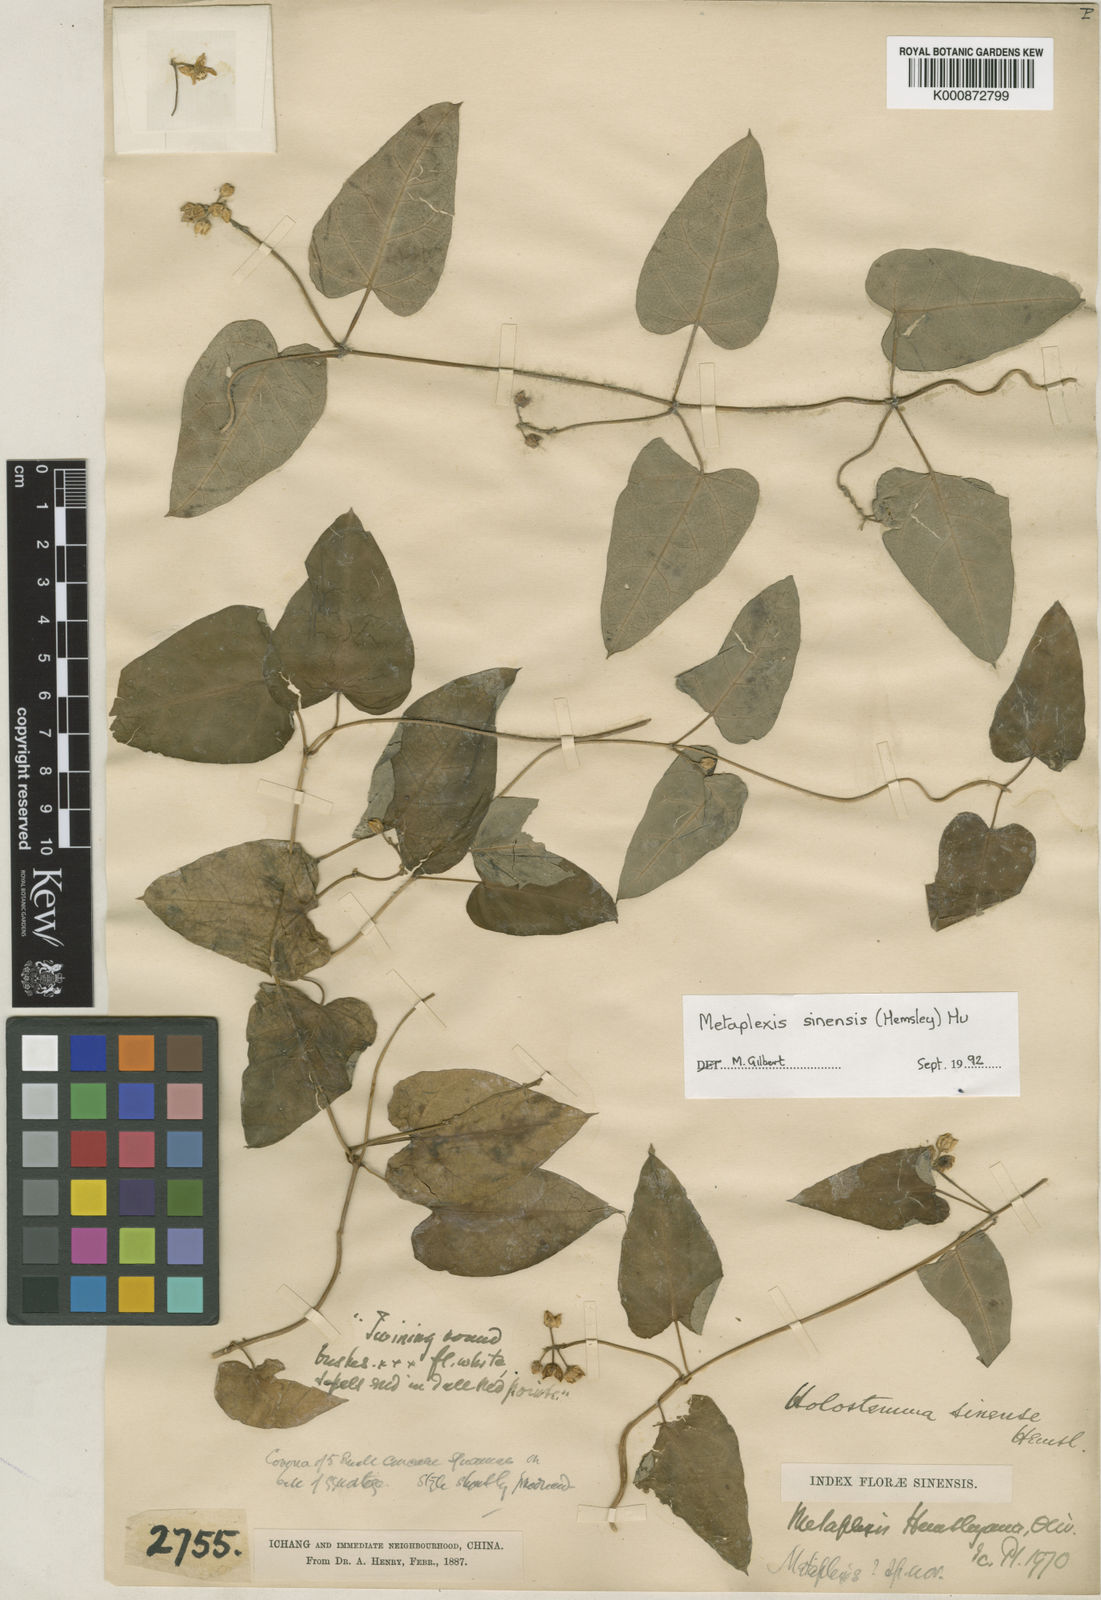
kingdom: Plantae
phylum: Tracheophyta
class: Magnoliopsida
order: Gentianales
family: Apocynaceae
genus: Cynanchum
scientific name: Cynanchum hemsleyanum
